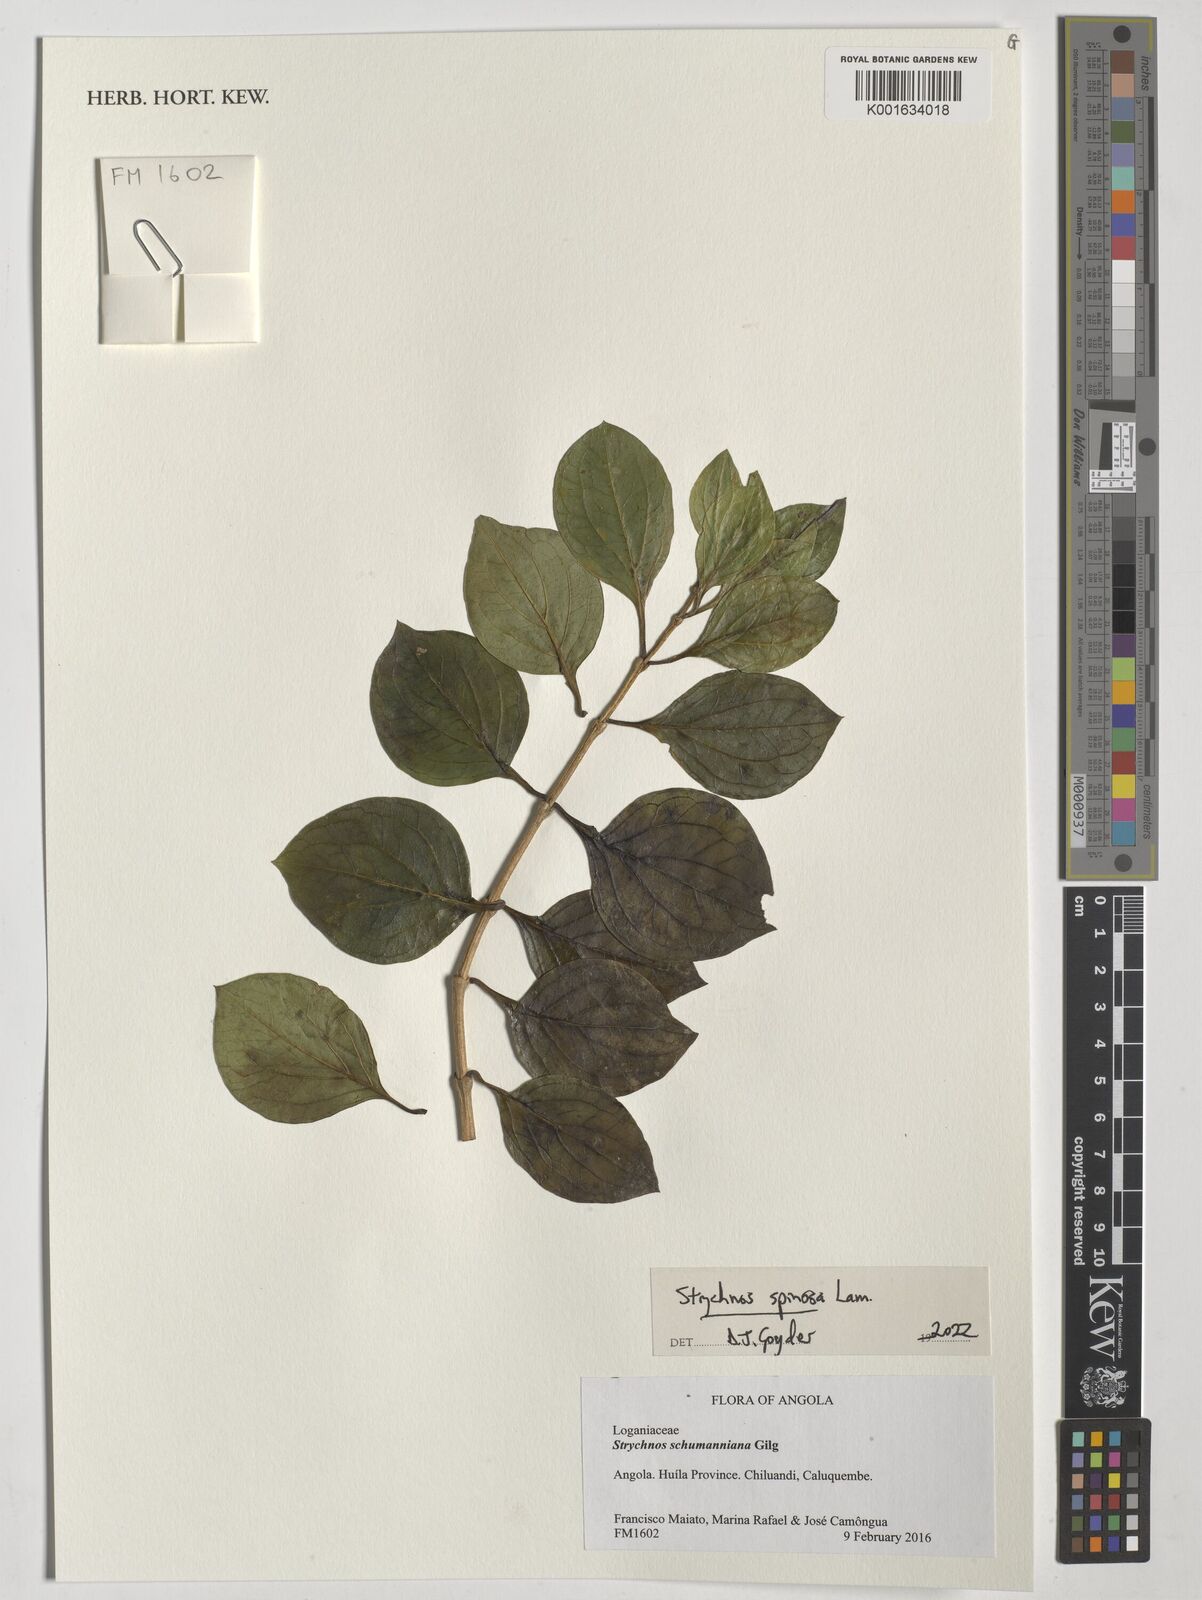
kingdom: Plantae
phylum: Tracheophyta
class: Magnoliopsida
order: Gentianales
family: Loganiaceae
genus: Strychnos
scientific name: Strychnos spinosa
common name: Natal orange
